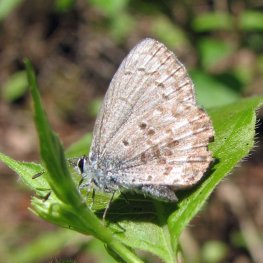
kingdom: Animalia
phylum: Arthropoda
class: Insecta
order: Lepidoptera
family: Lycaenidae
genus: Celastrina
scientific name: Celastrina lucia
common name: Northern Spring Azure
